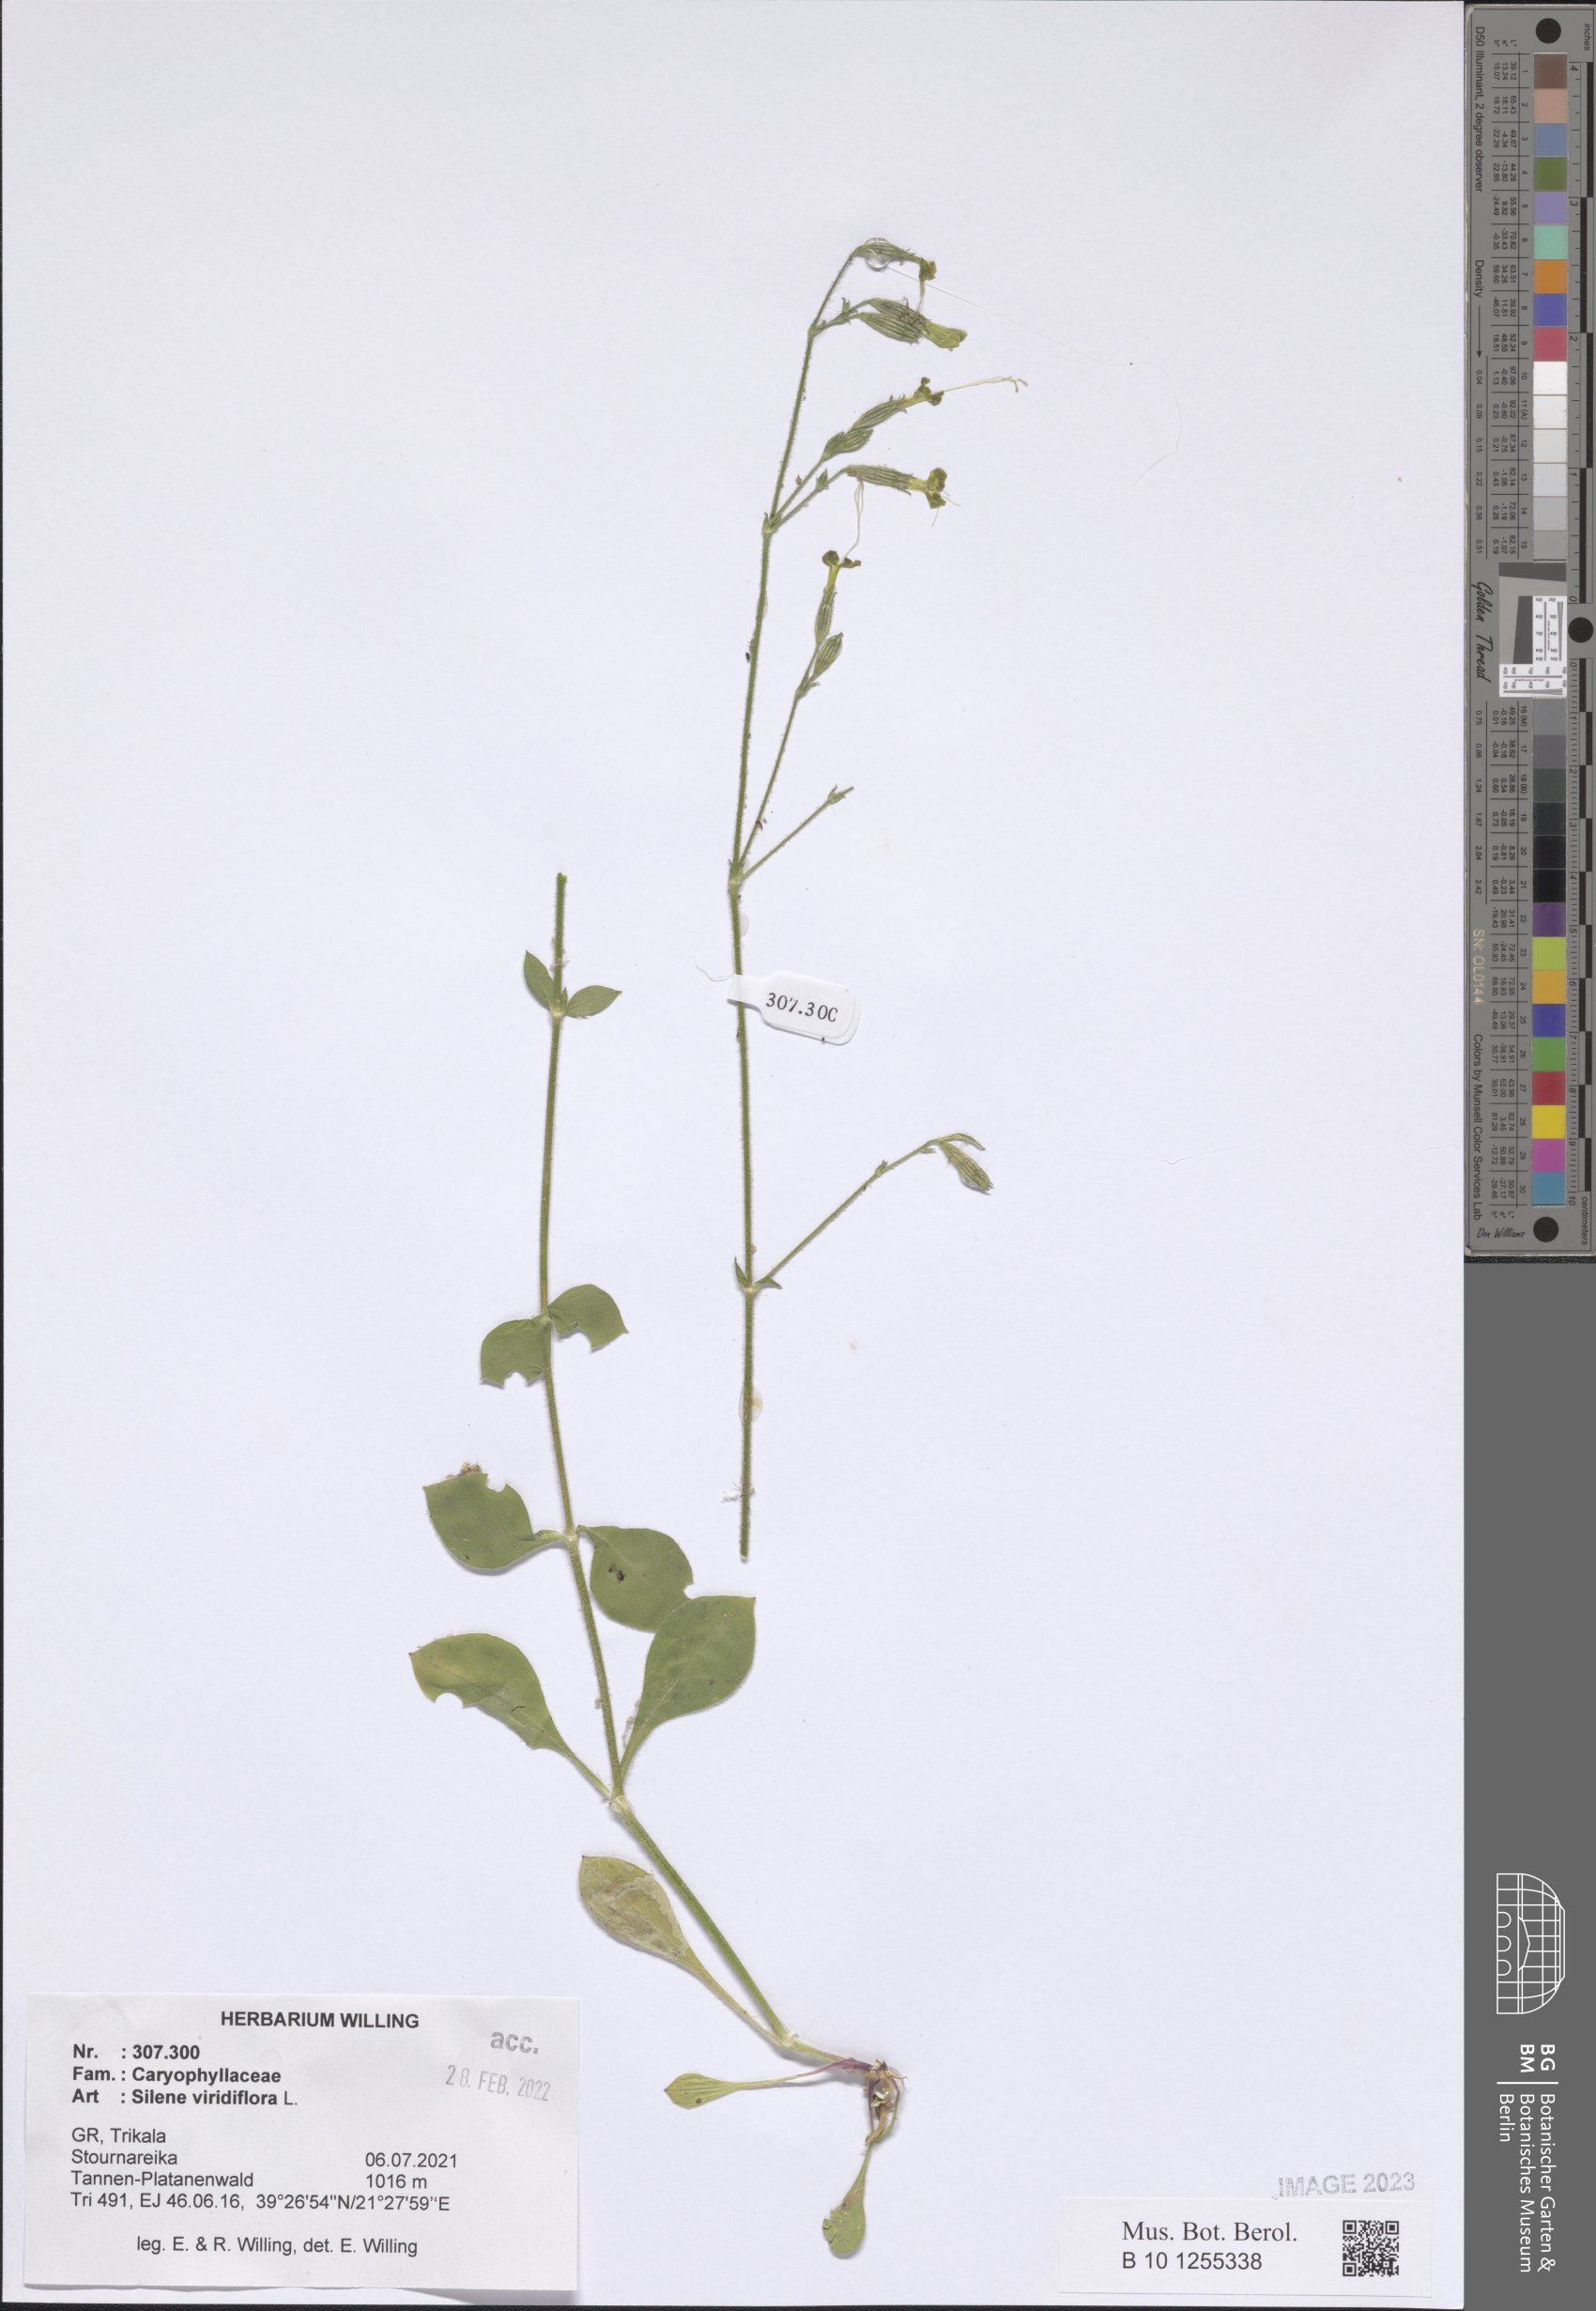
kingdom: Plantae
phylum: Tracheophyta
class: Magnoliopsida
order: Caryophyllales
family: Caryophyllaceae
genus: Silene
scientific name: Silene viridiflora
